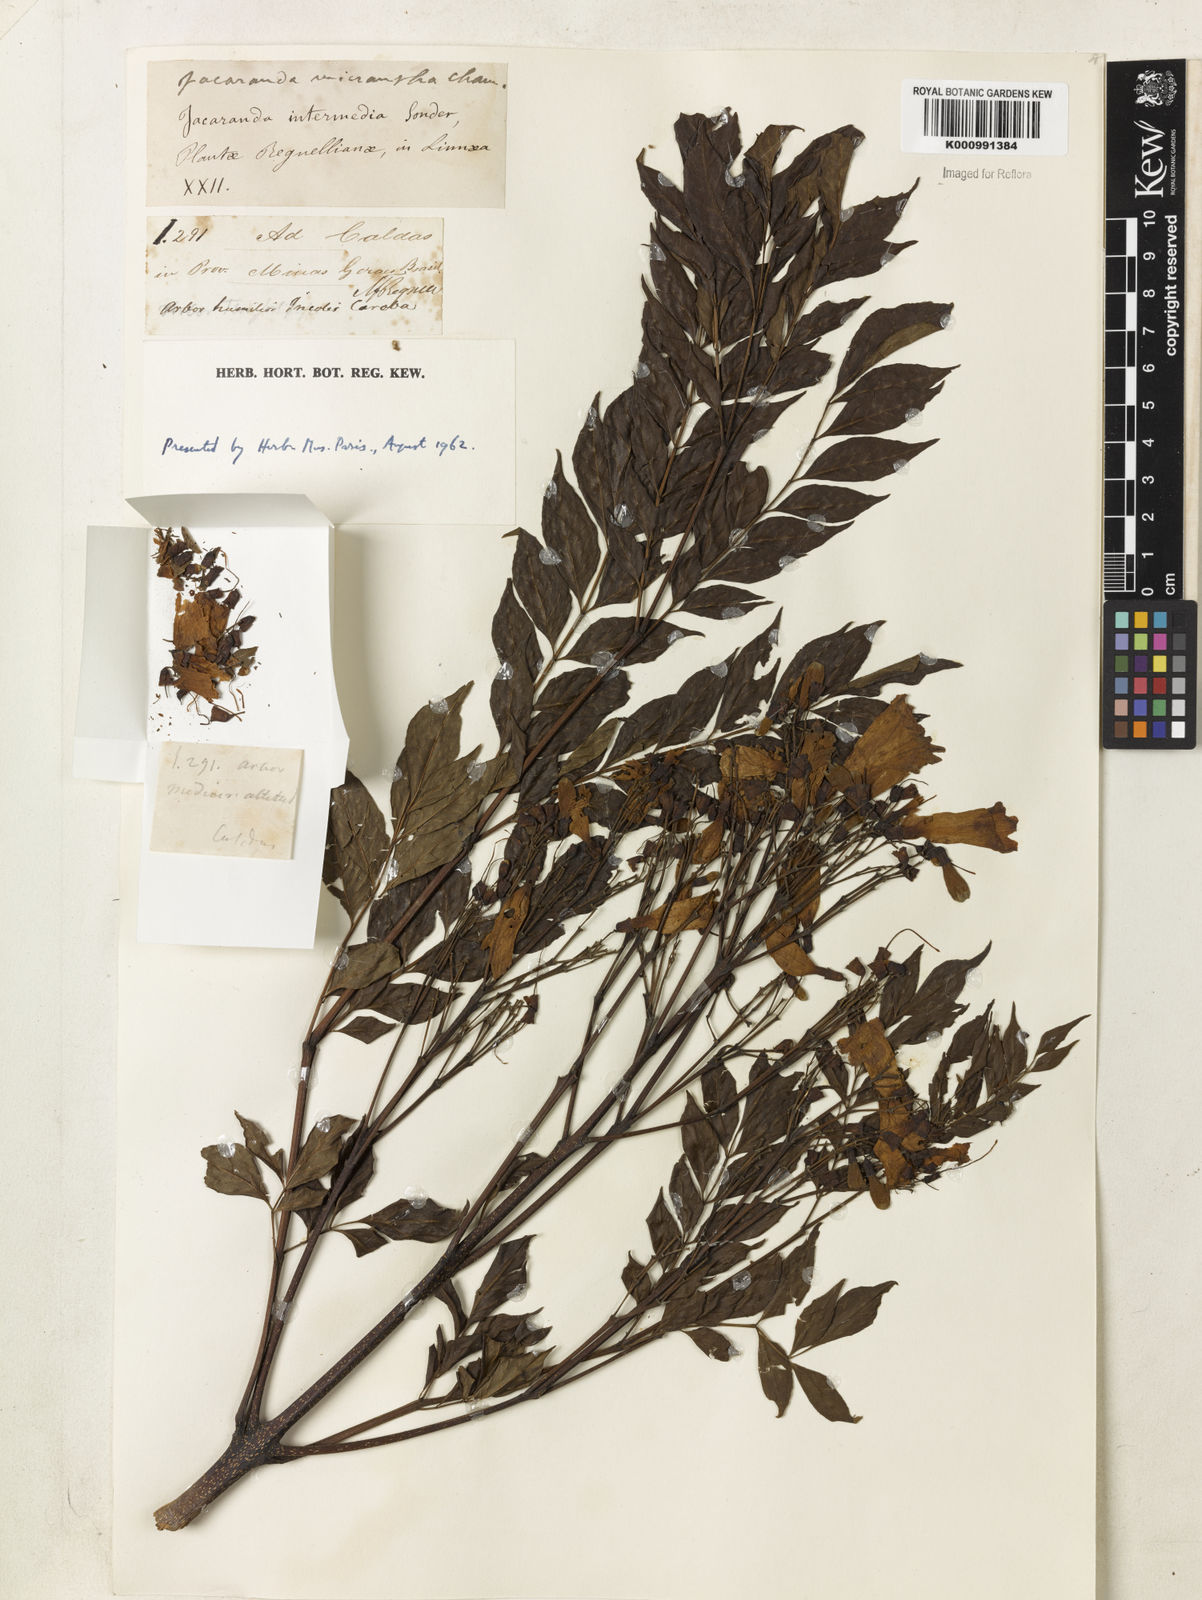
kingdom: Plantae
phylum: Tracheophyta
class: Magnoliopsida
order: Lamiales
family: Bignoniaceae
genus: Jacaranda
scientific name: Jacaranda micrantha
